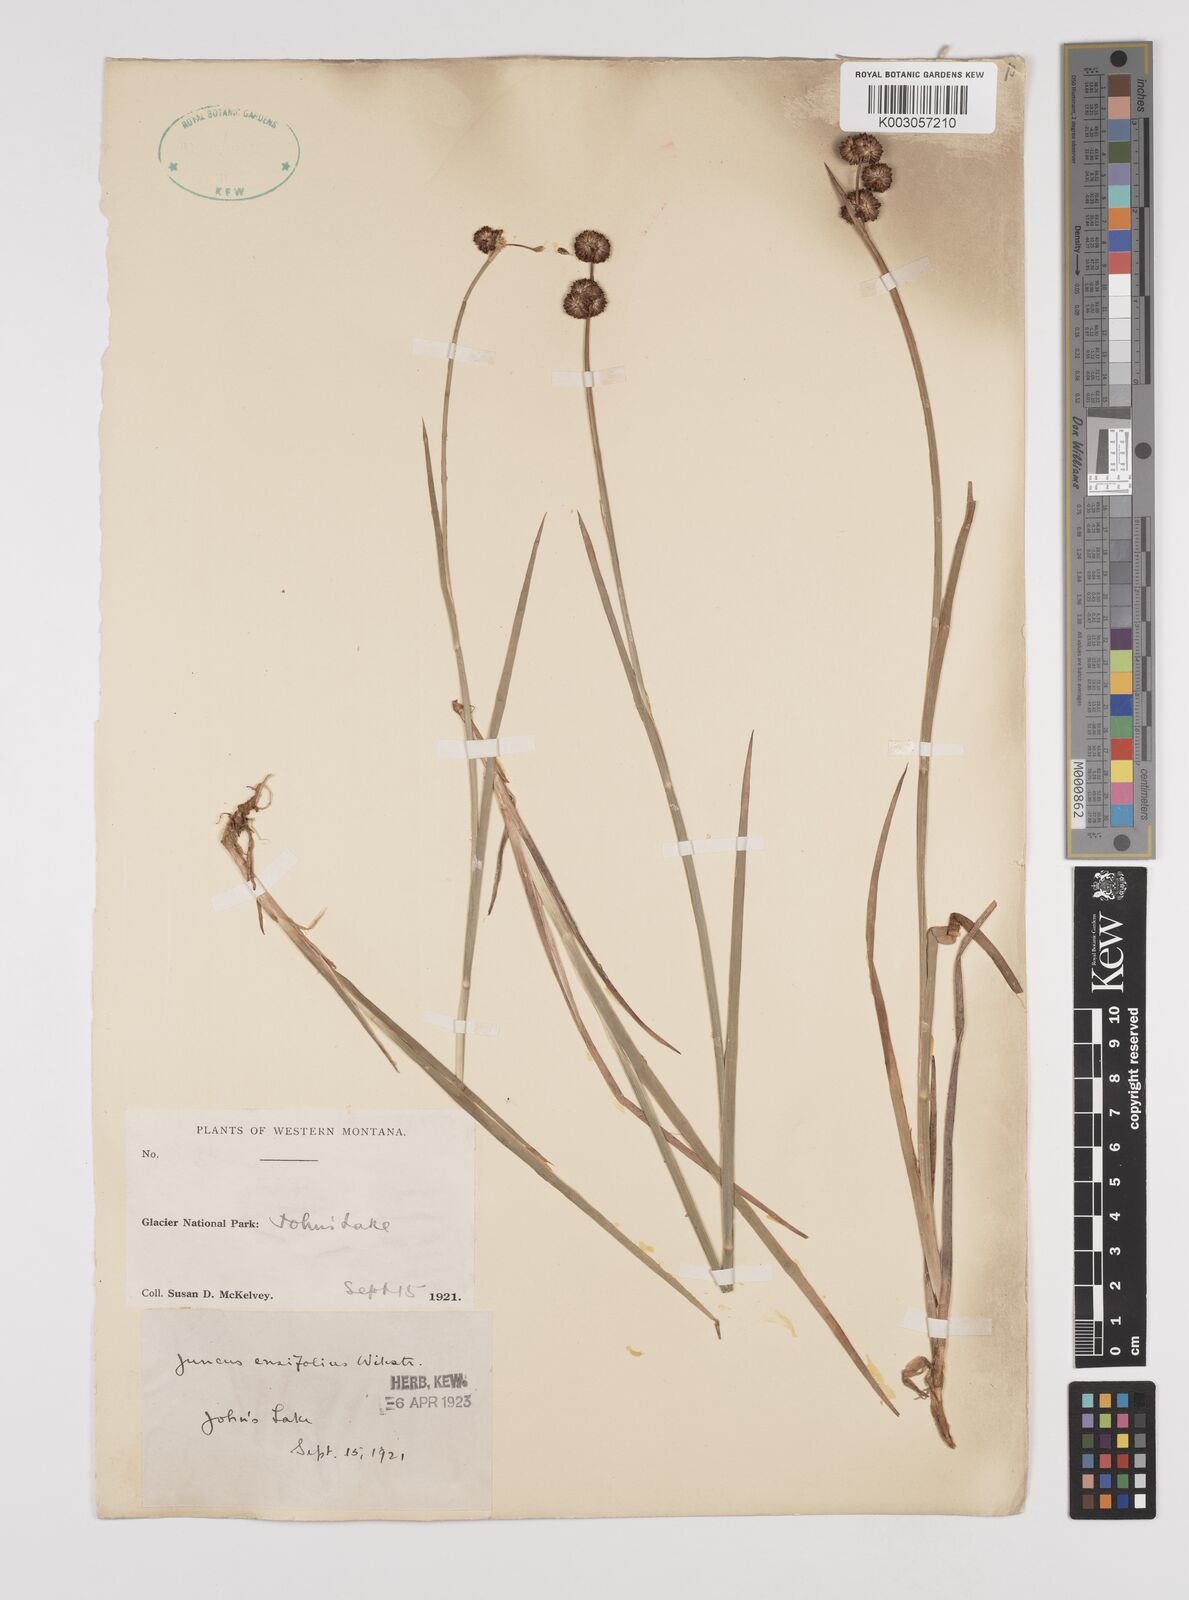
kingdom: Plantae
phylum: Tracheophyta
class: Liliopsida
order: Poales
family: Juncaceae
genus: Juncus
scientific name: Juncus ensifolius
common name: Sword-leaved rush
